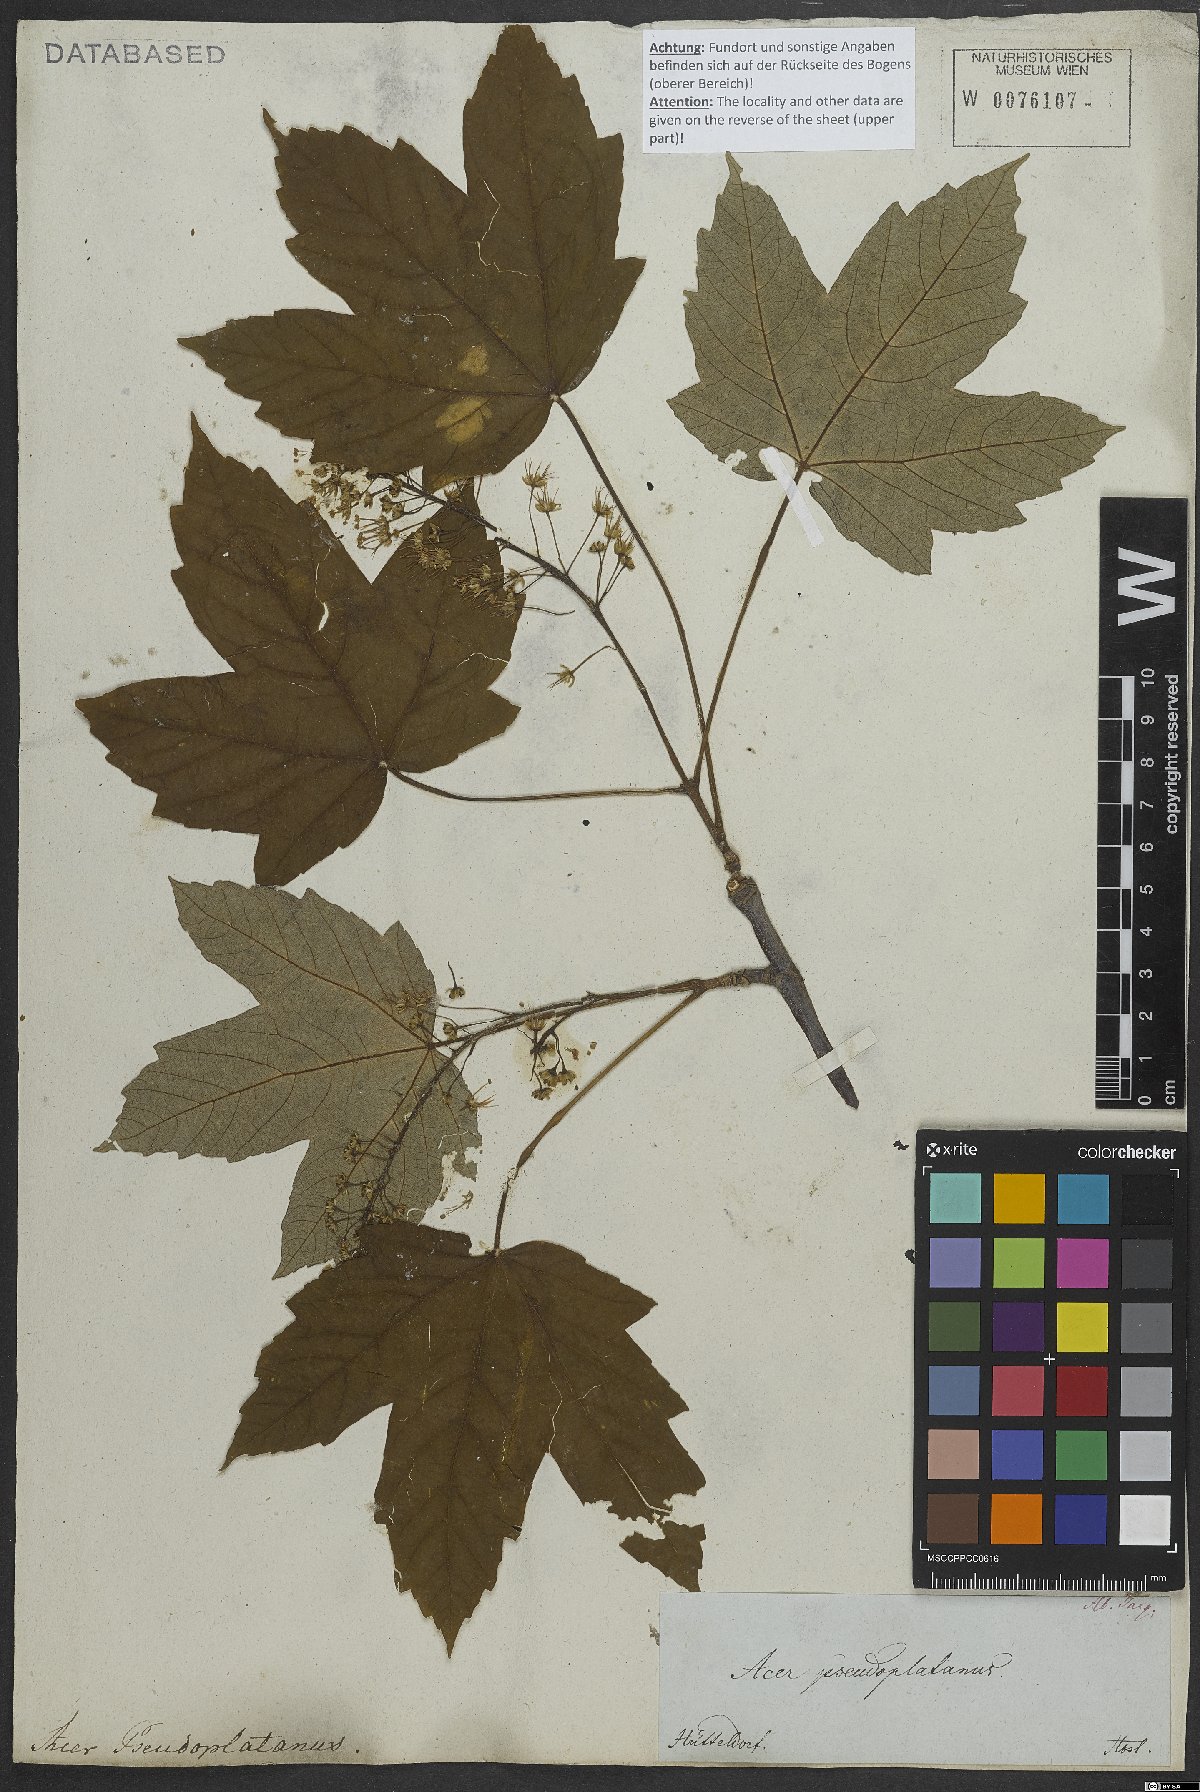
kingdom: Plantae
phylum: Tracheophyta
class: Magnoliopsida
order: Sapindales
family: Sapindaceae
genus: Acer
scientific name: Acer pseudoplatanus
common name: Sycamore
